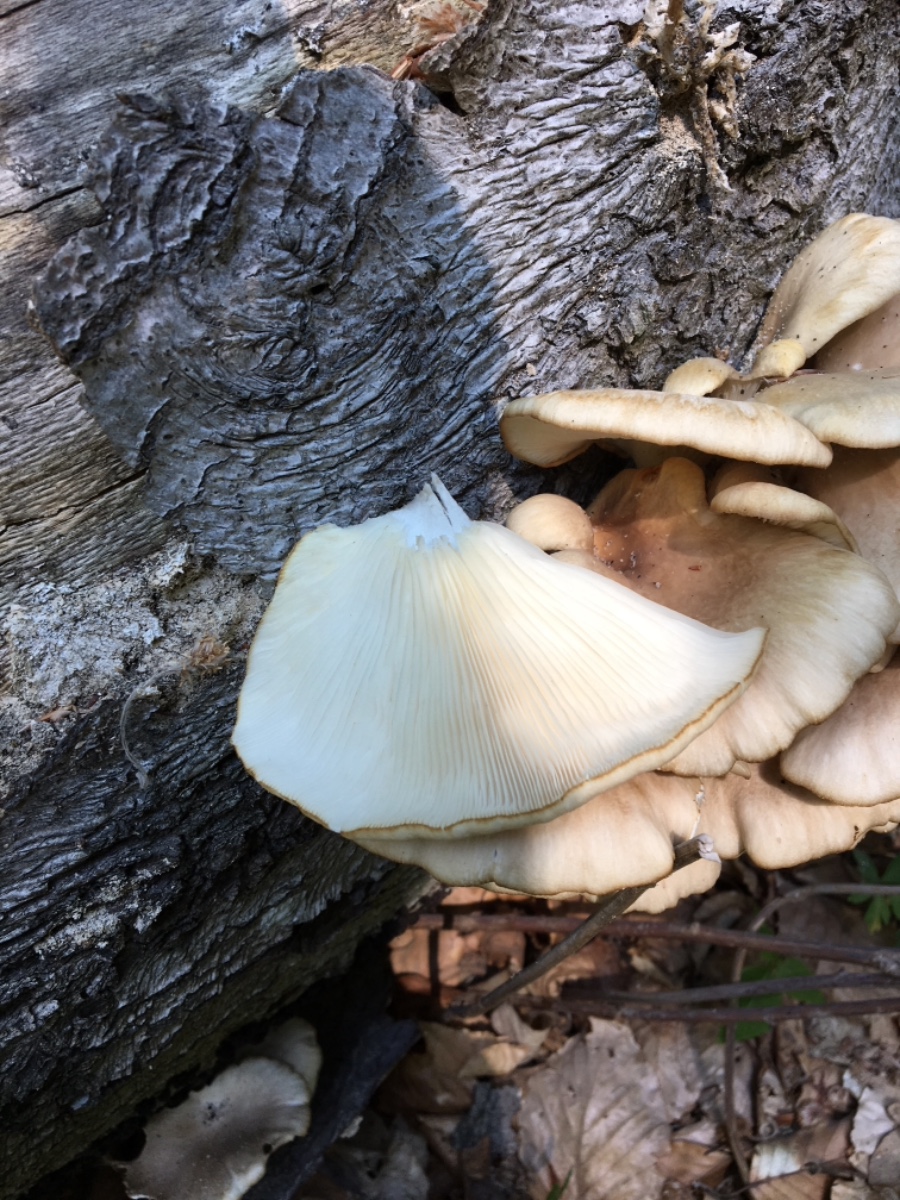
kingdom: Fungi
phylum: Basidiomycota
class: Agaricomycetes
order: Agaricales
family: Pleurotaceae
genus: Pleurotus
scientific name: Pleurotus pulmonarius
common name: sommer-østershat
